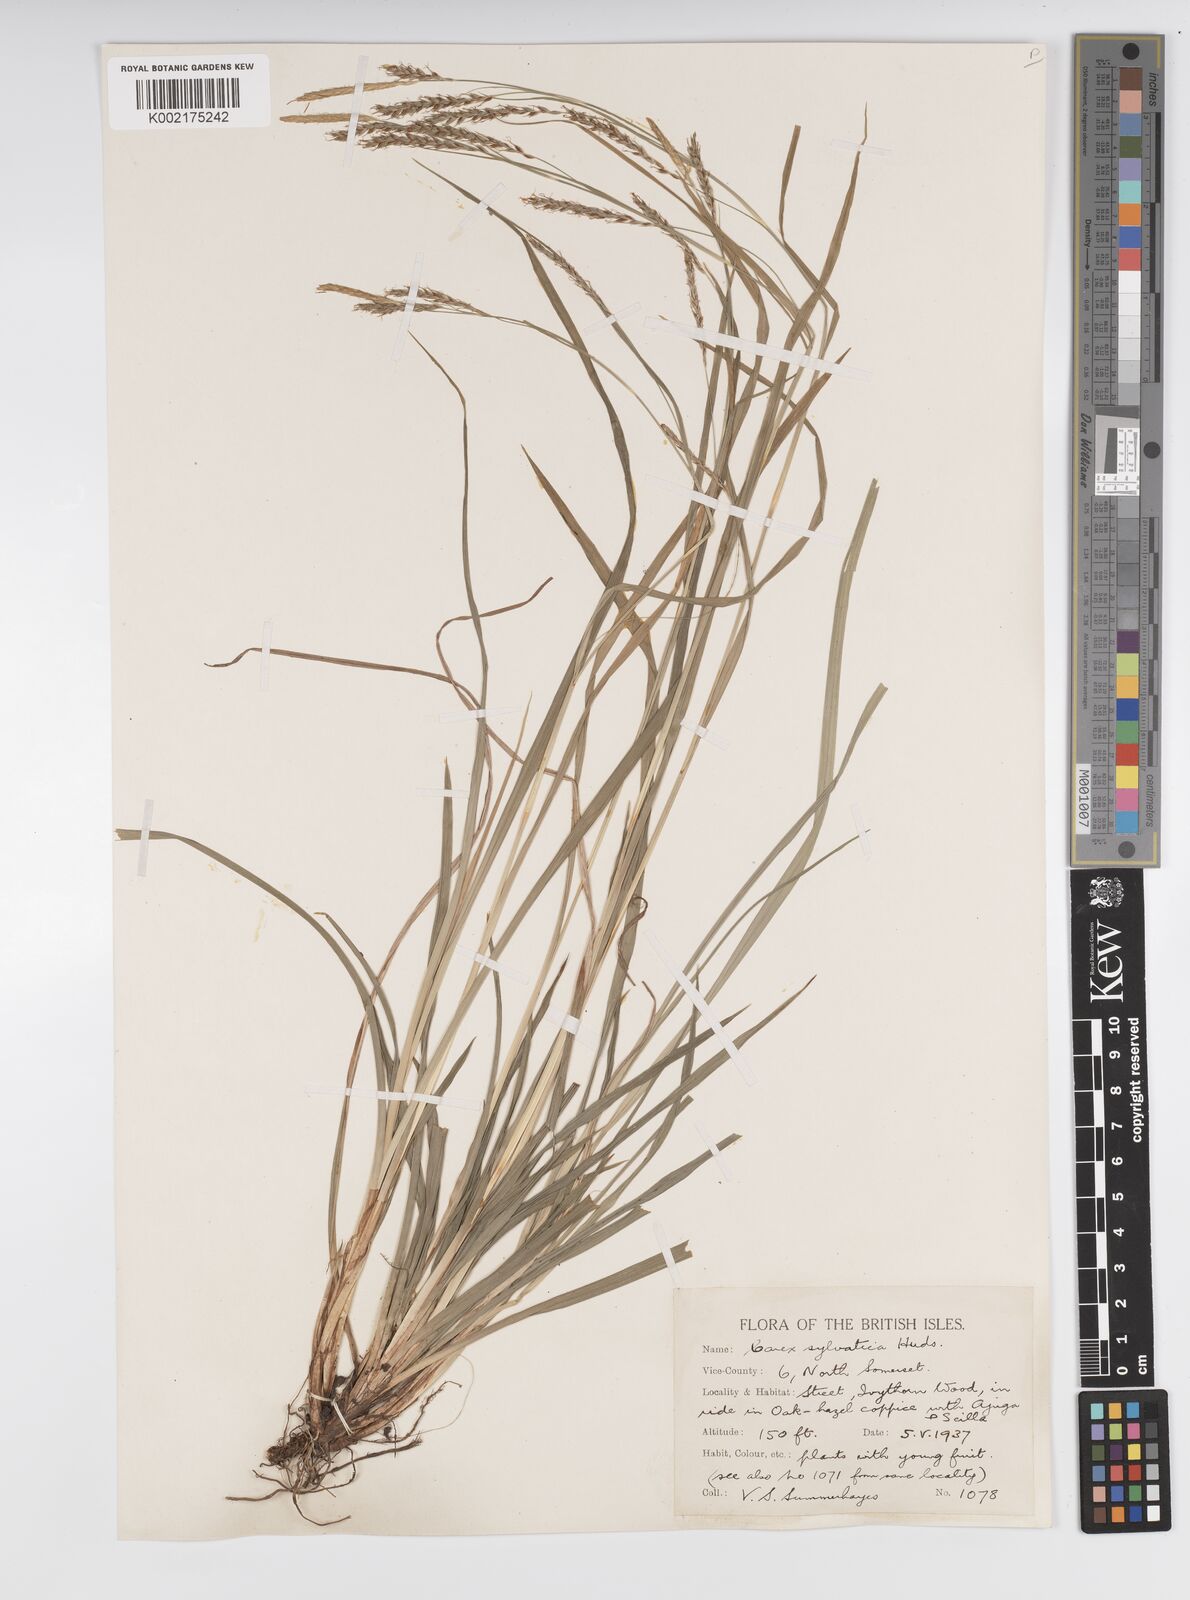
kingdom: Plantae
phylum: Tracheophyta
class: Liliopsida
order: Poales
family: Cyperaceae
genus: Carex
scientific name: Carex sylvatica
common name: Wood-sedge
